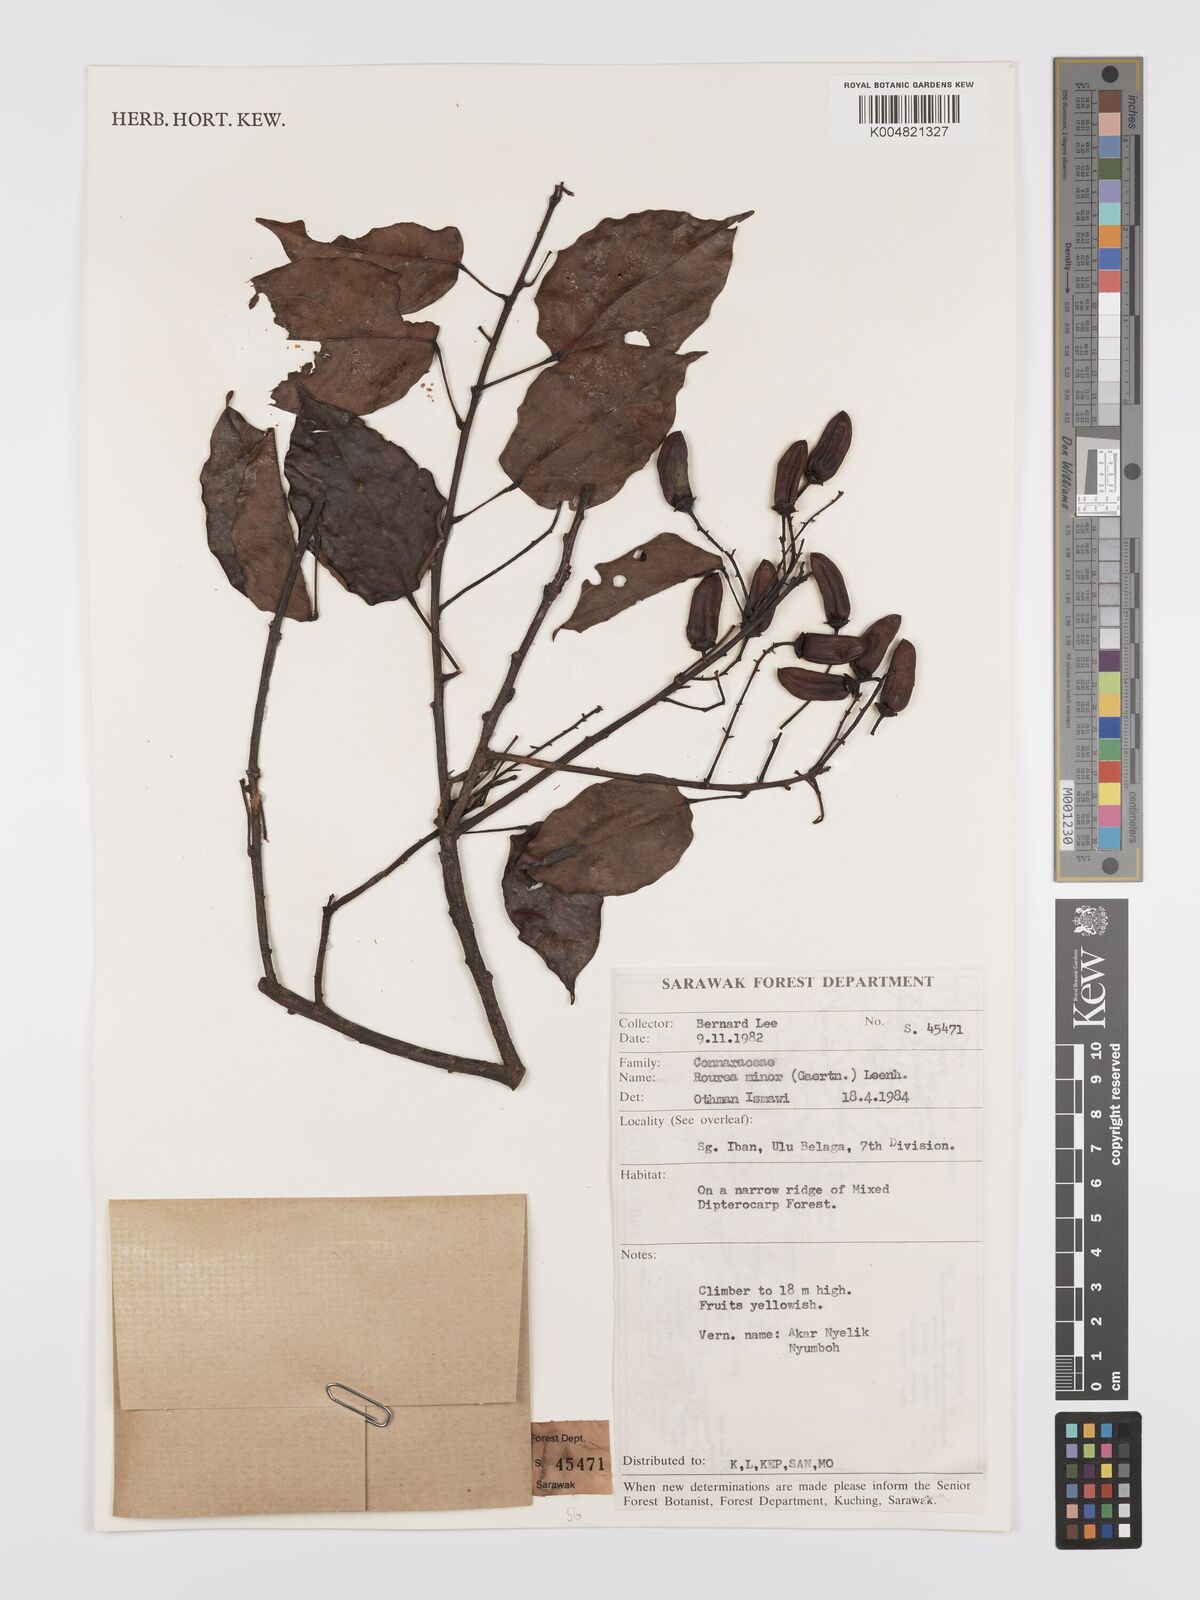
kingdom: Plantae
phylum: Tracheophyta
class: Magnoliopsida
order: Oxalidales
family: Connaraceae
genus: Rourea
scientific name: Rourea minor
